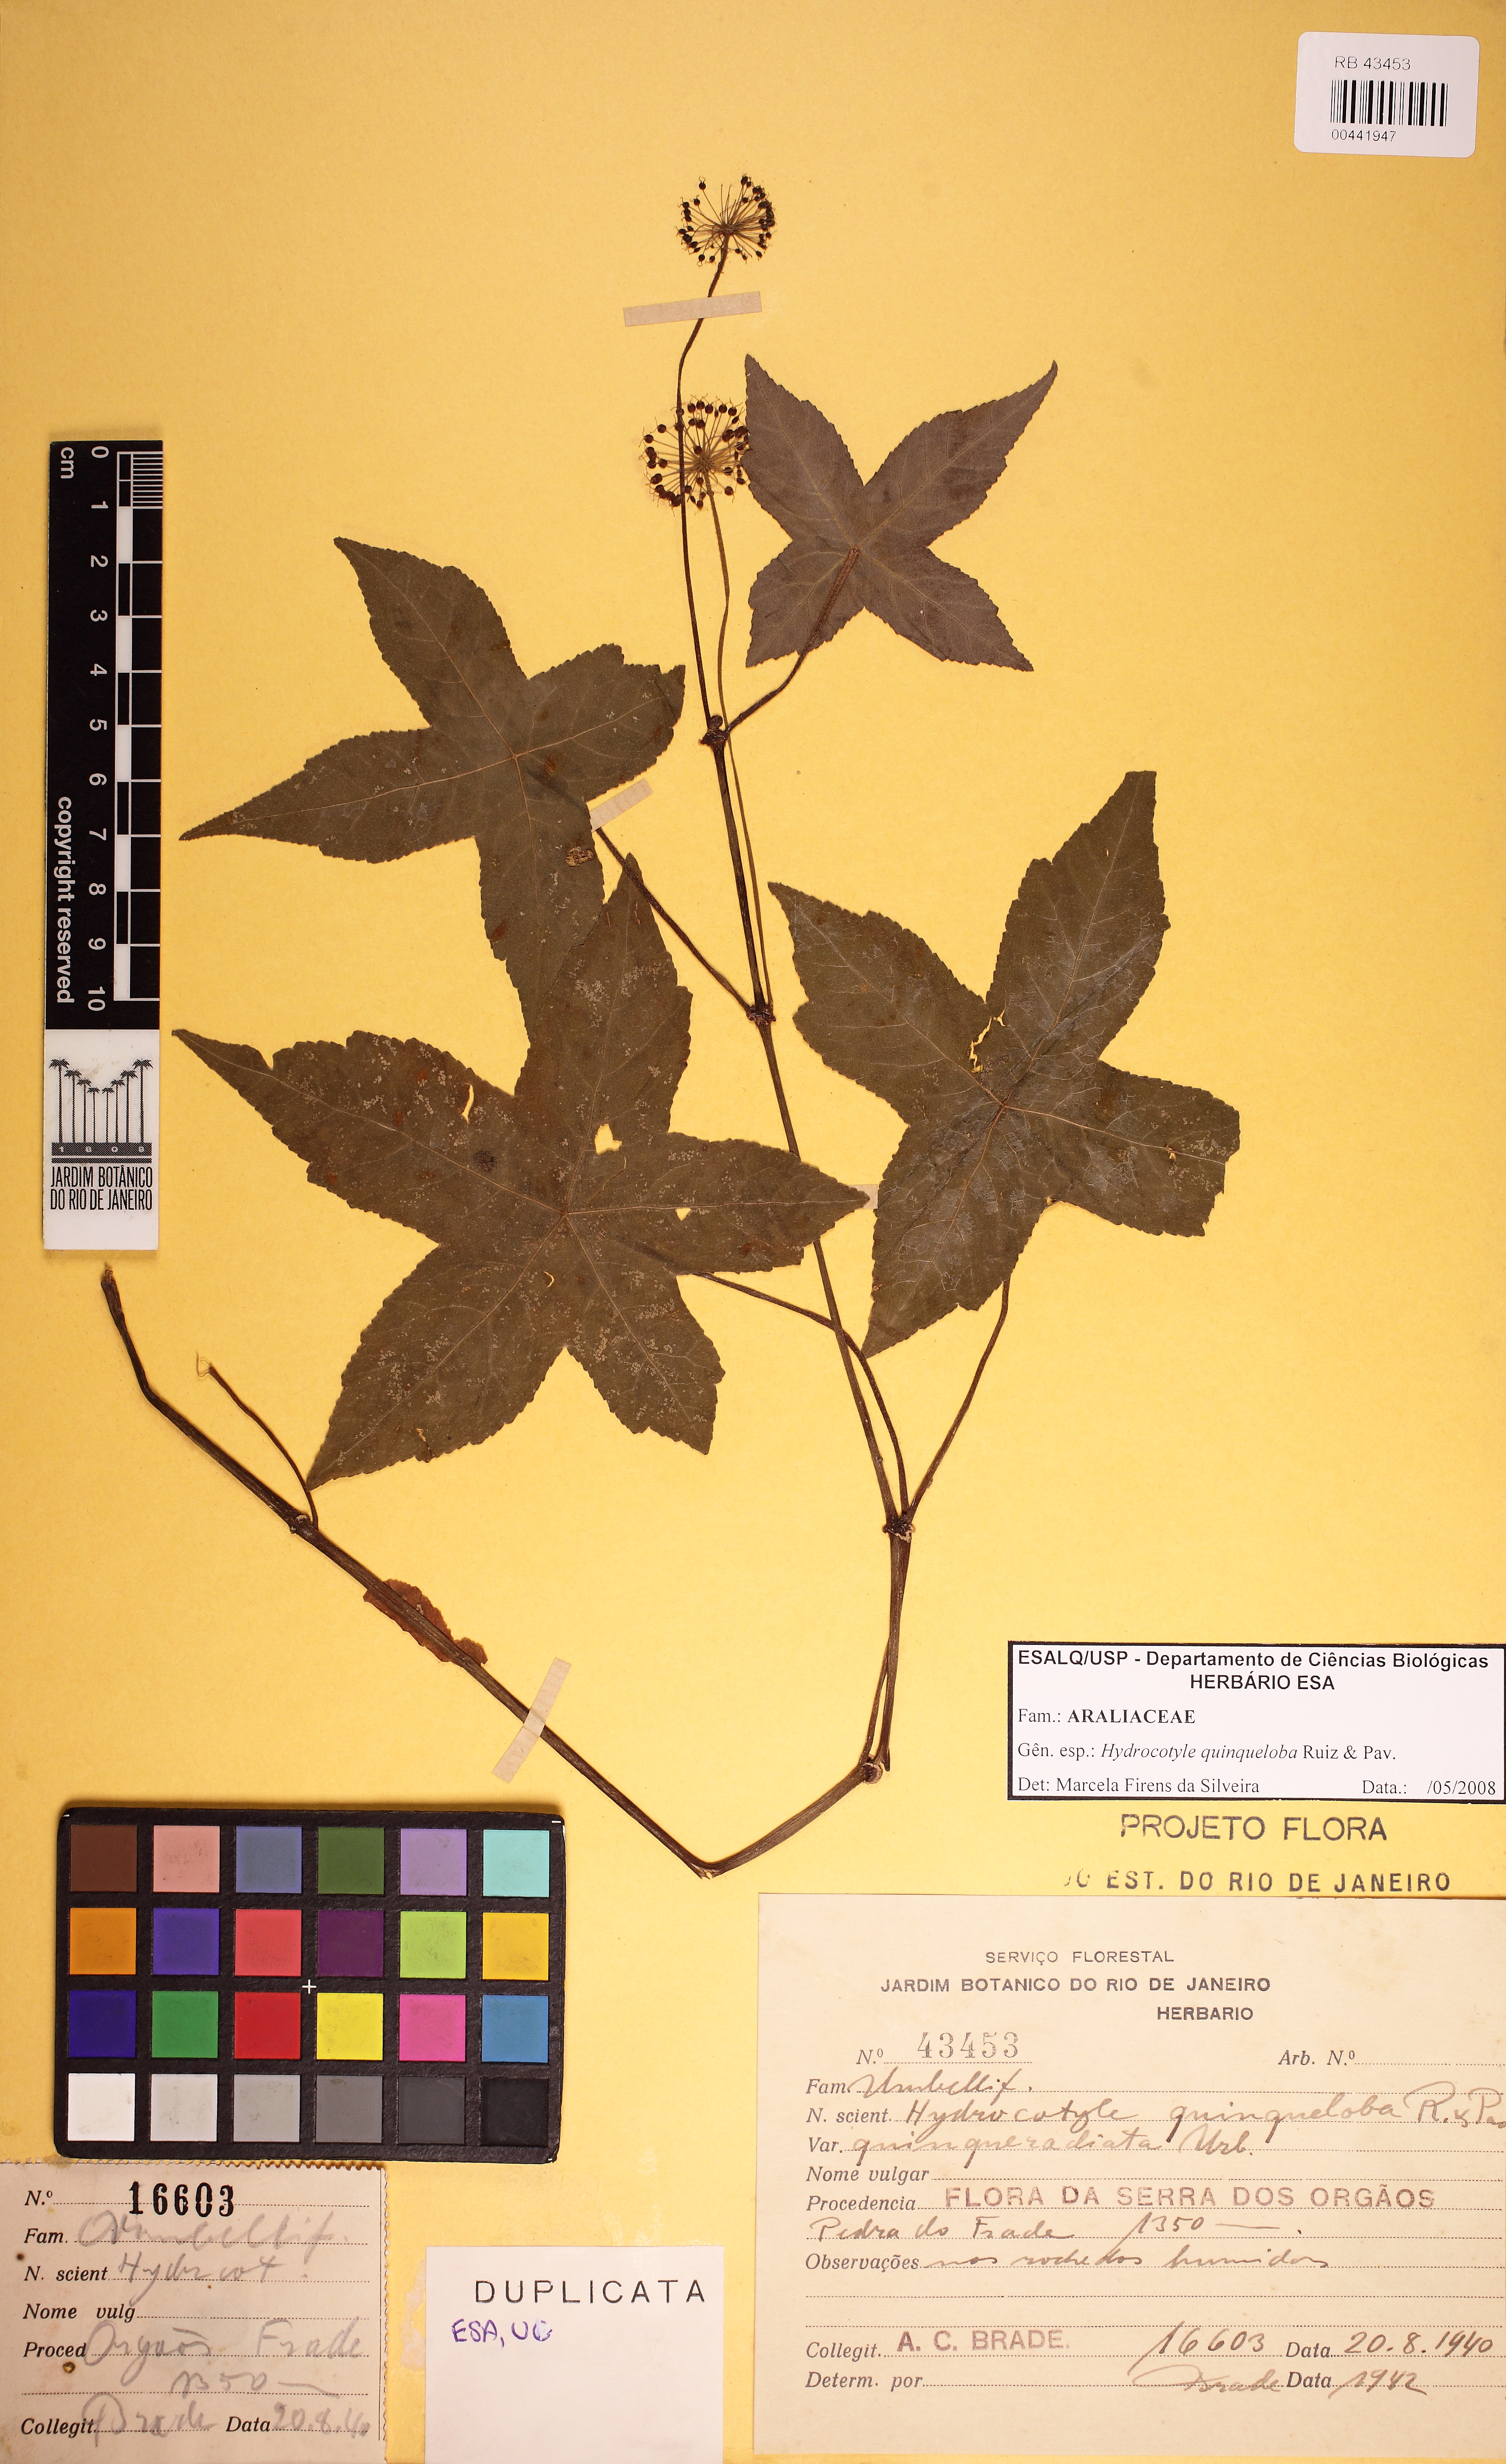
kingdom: Plantae
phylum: Tracheophyta
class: Magnoliopsida
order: Apiales
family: Araliaceae
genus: Hydrocotyle
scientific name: Hydrocotyle quinqueloba
